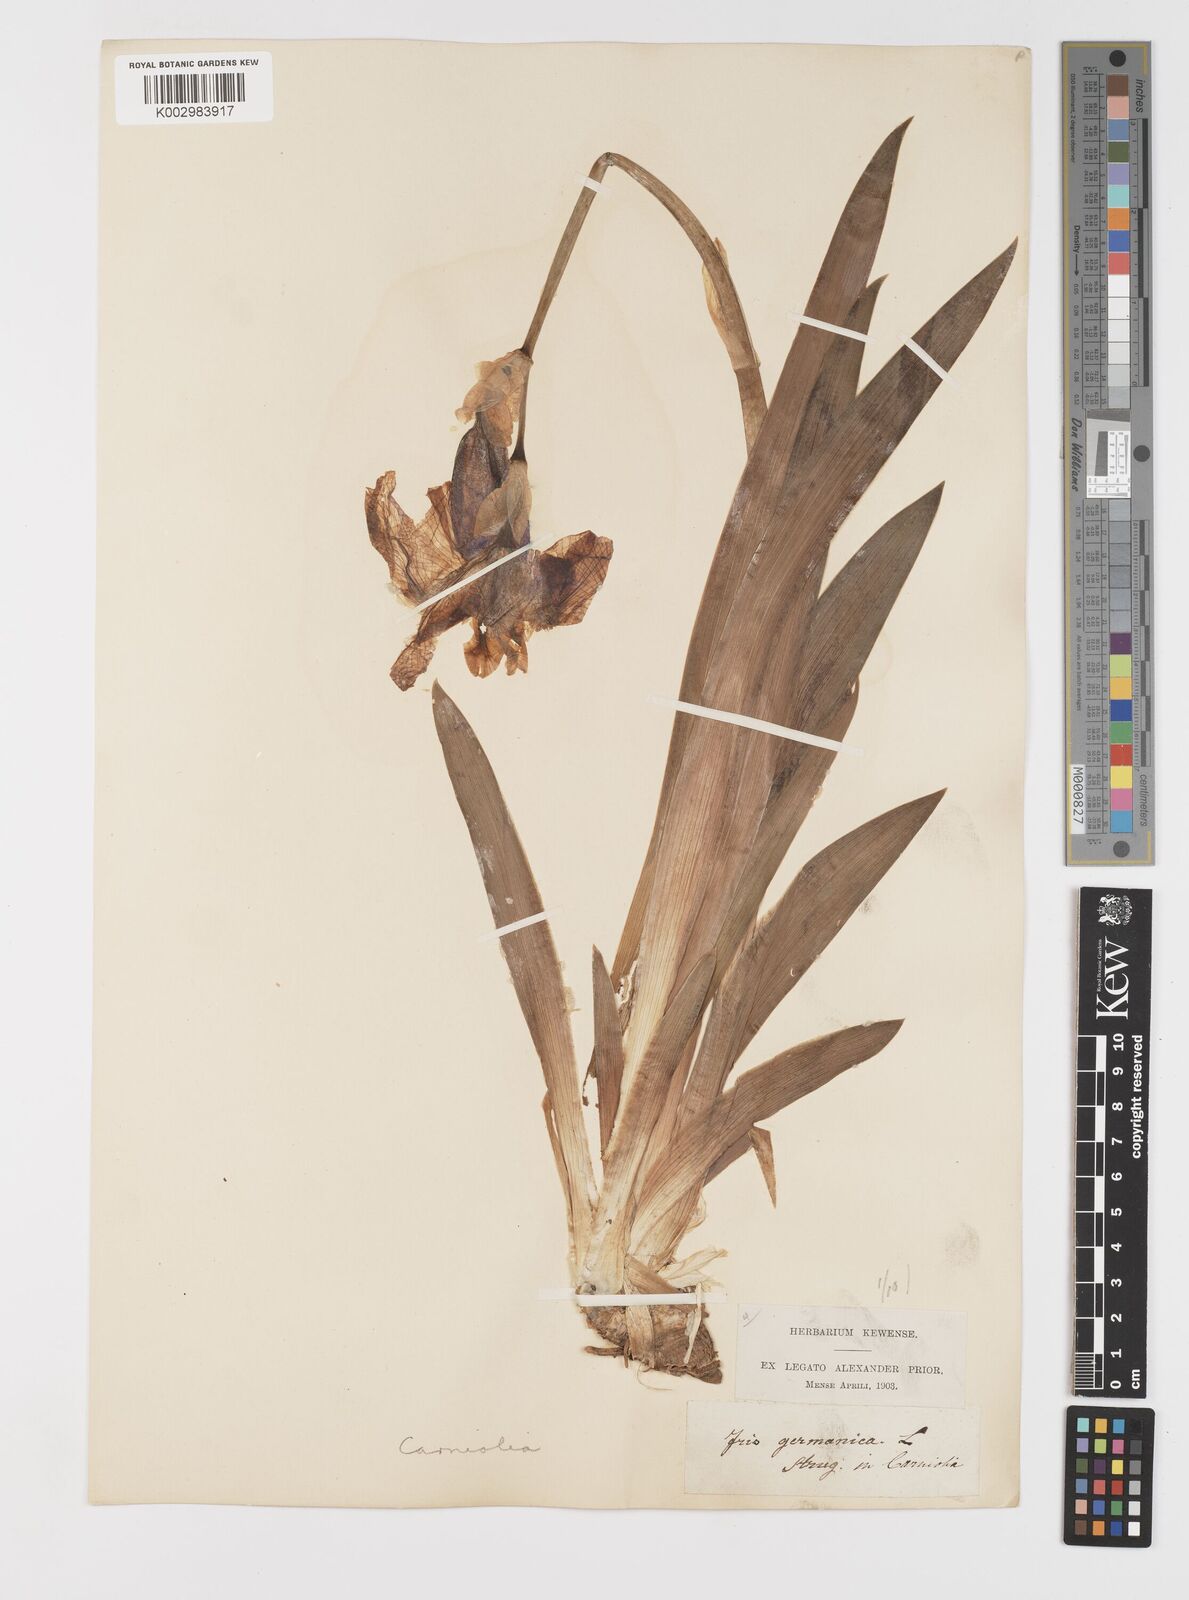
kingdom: Plantae
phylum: Tracheophyta
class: Liliopsida
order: Asparagales
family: Iridaceae
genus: Iris
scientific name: Iris germanica
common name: German iris
